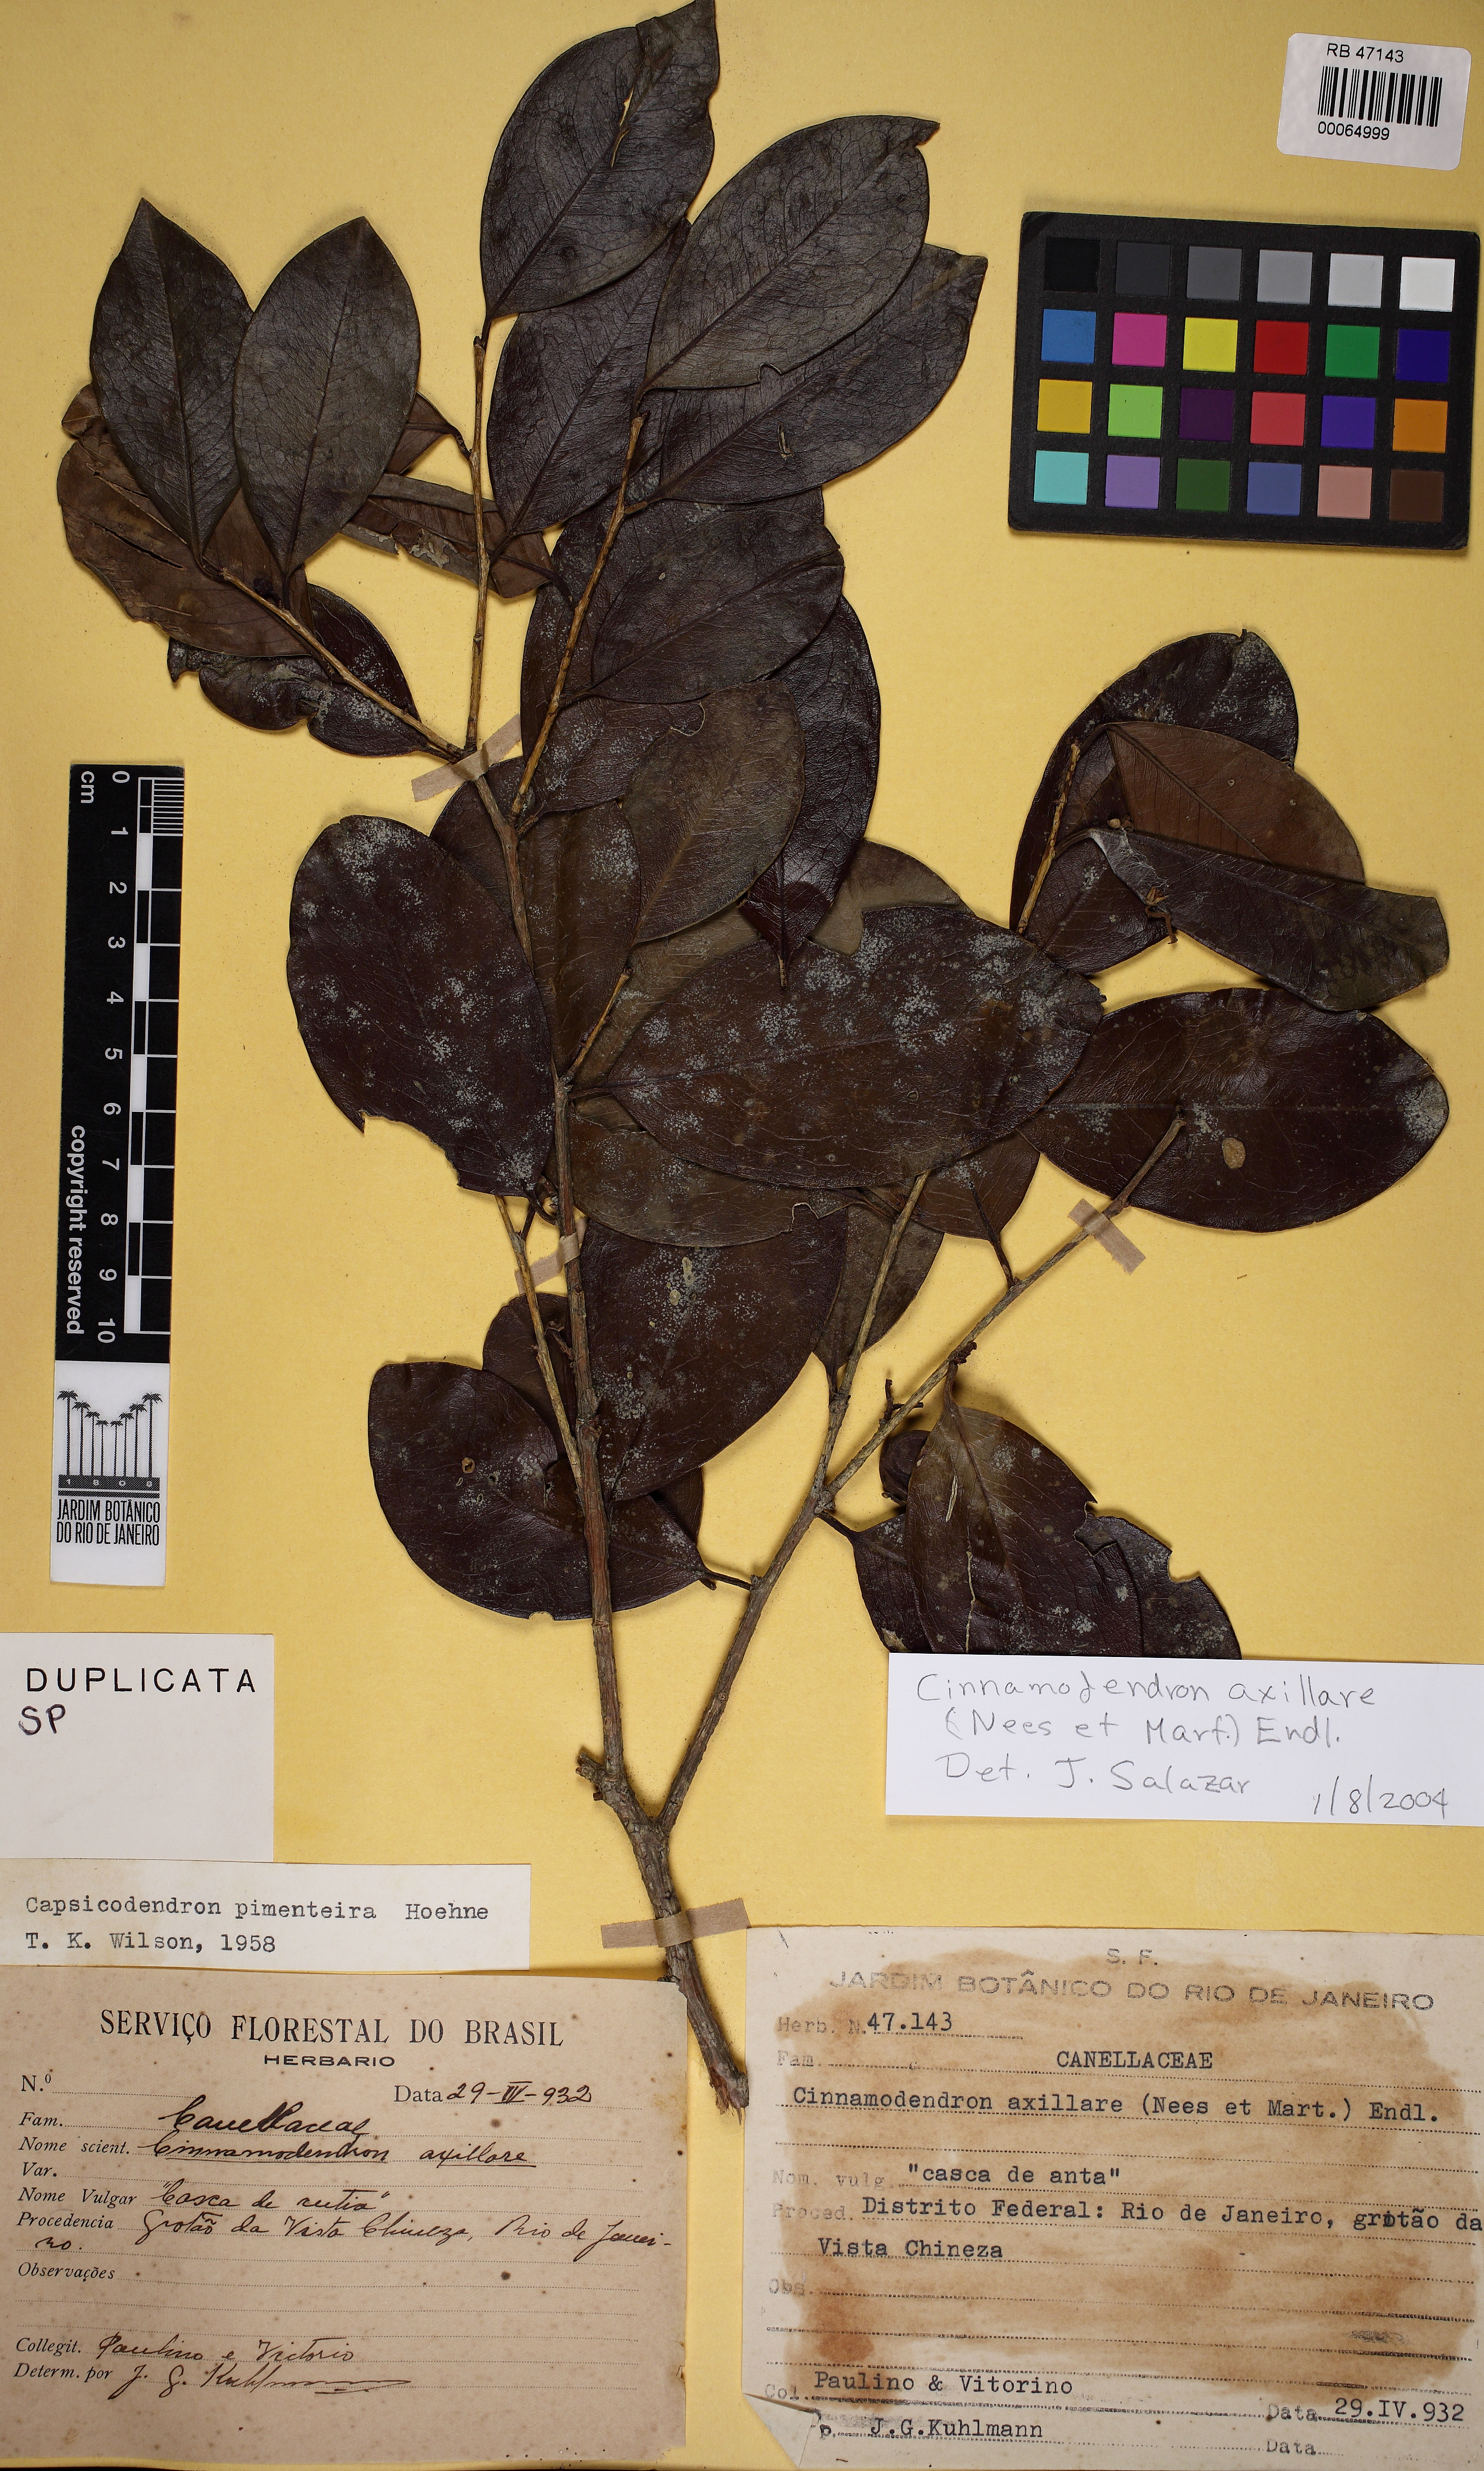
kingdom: Plantae
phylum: Tracheophyta
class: Magnoliopsida
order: Canellales
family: Canellaceae
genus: Cinnamodendron
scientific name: Cinnamodendron axillare
